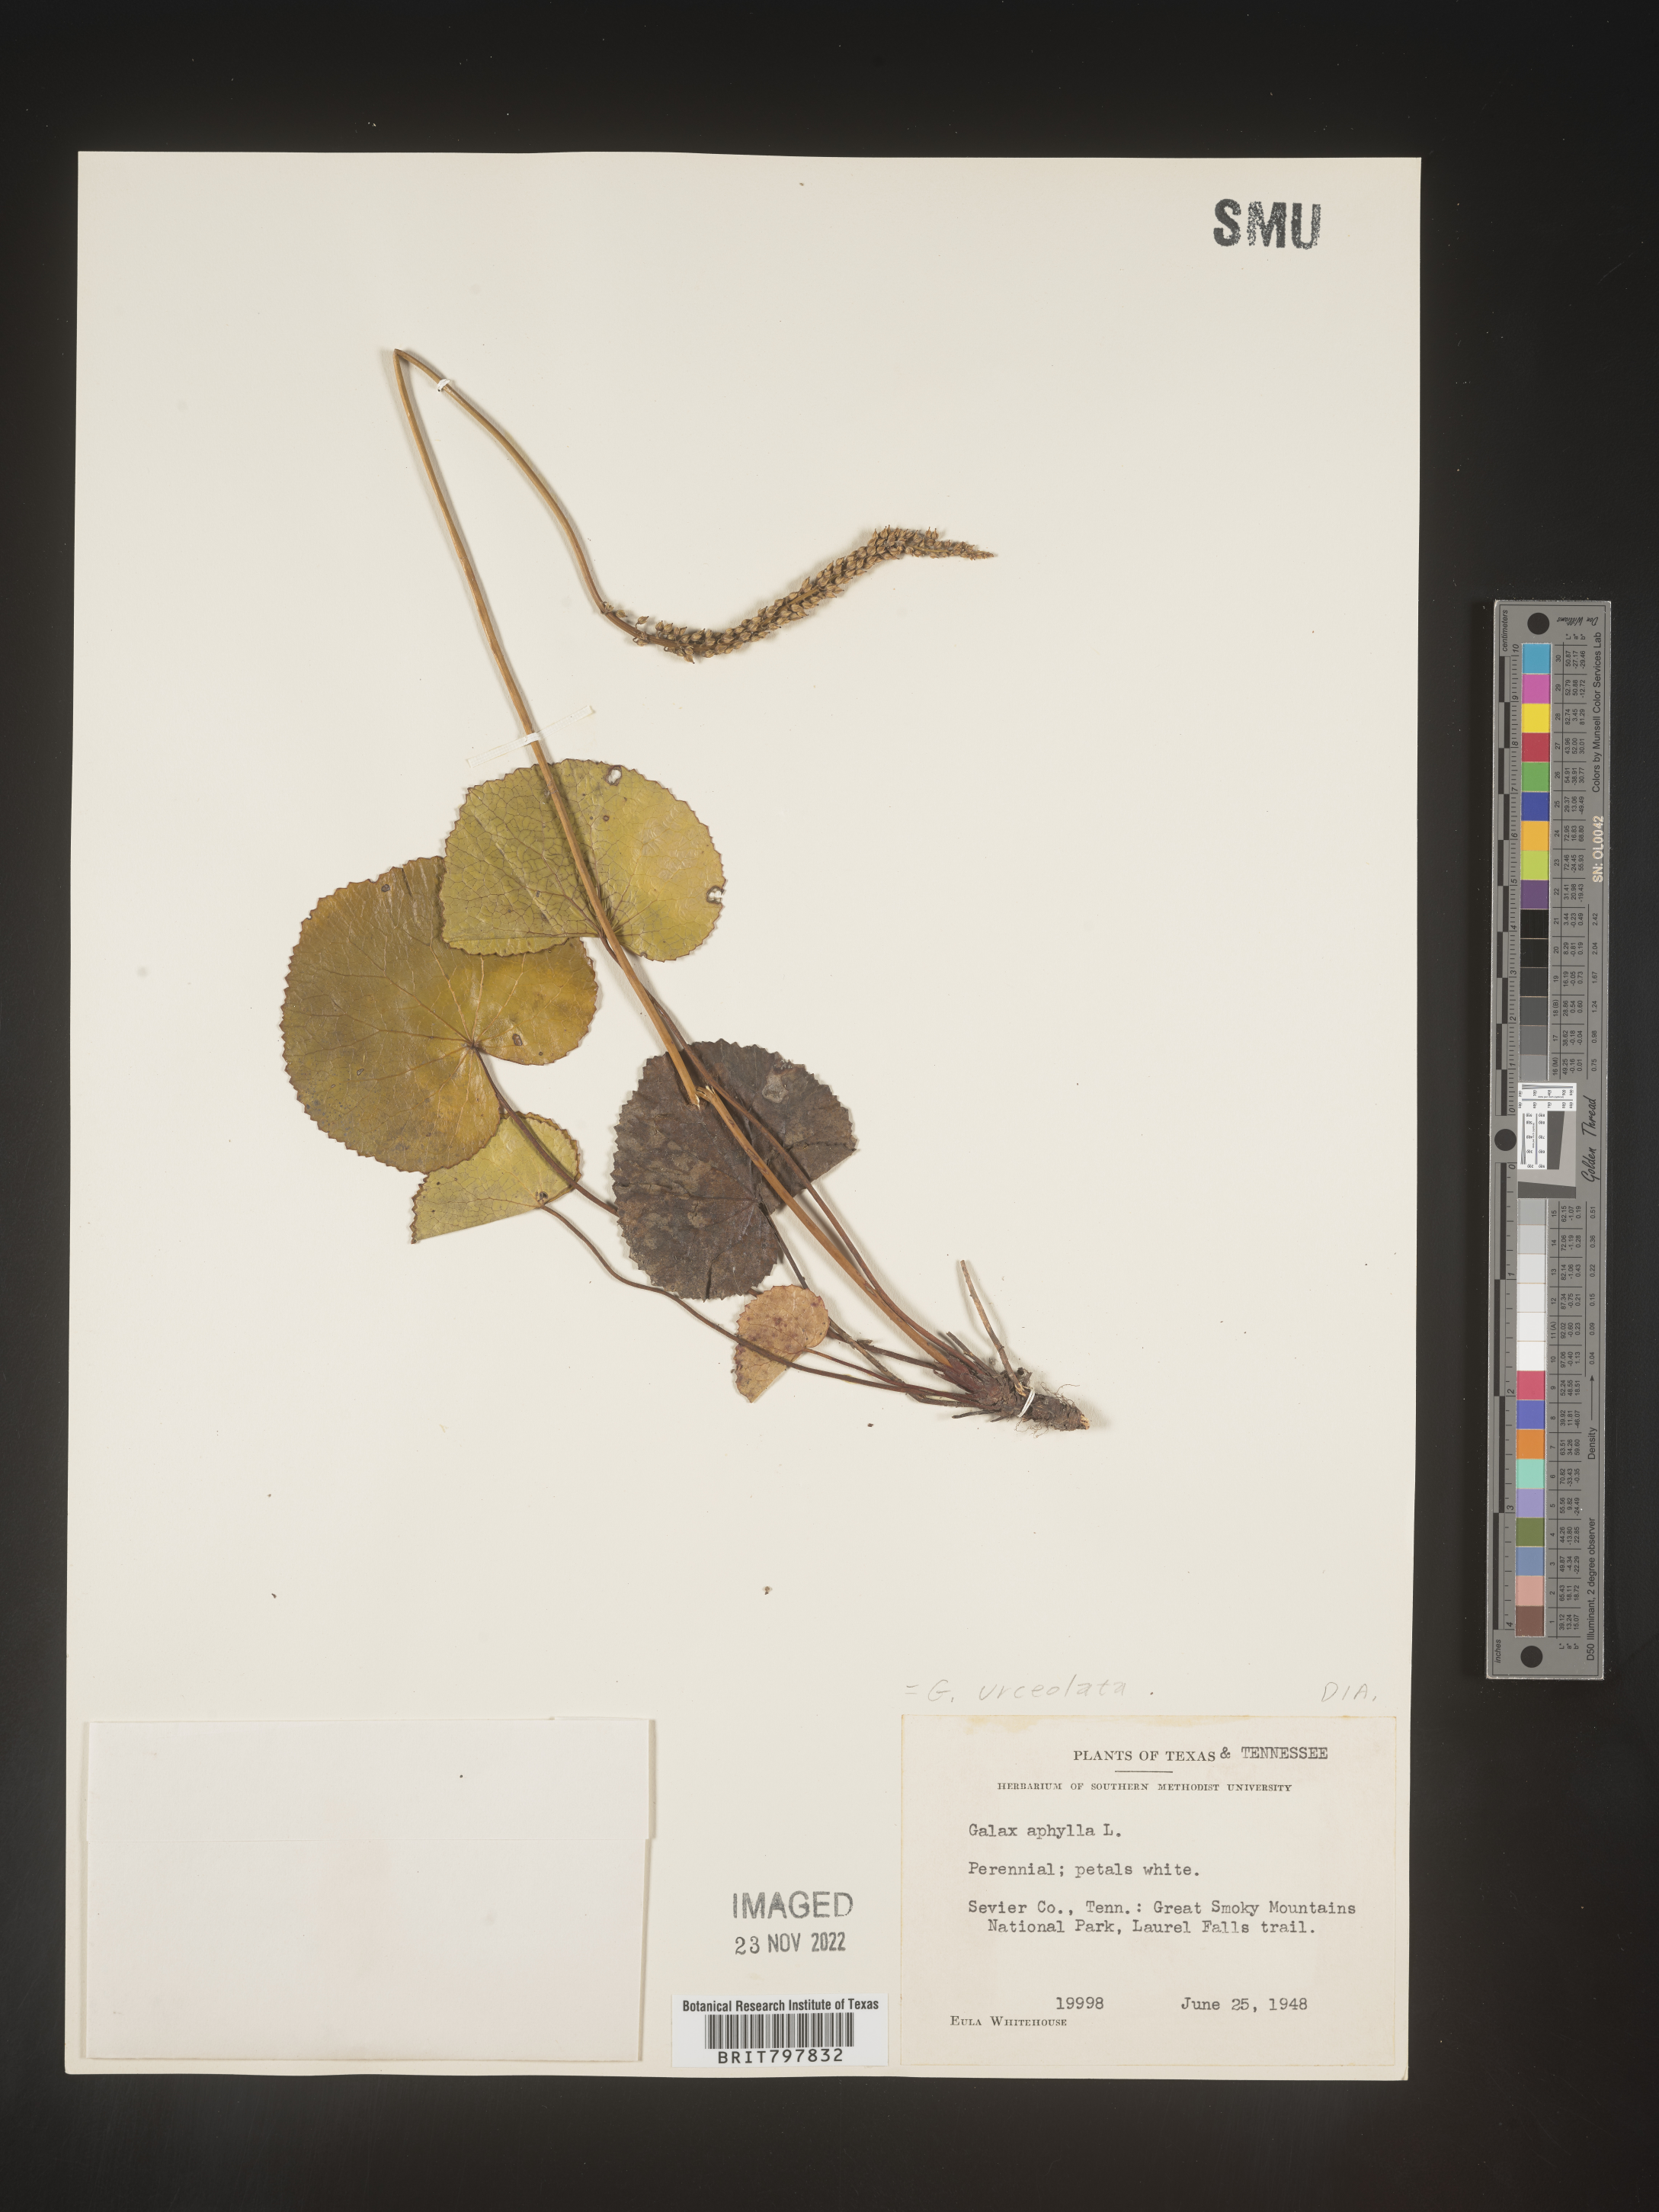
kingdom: Plantae
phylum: Tracheophyta
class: Magnoliopsida
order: Ericales
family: Diapensiaceae
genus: Galax
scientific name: Galax
